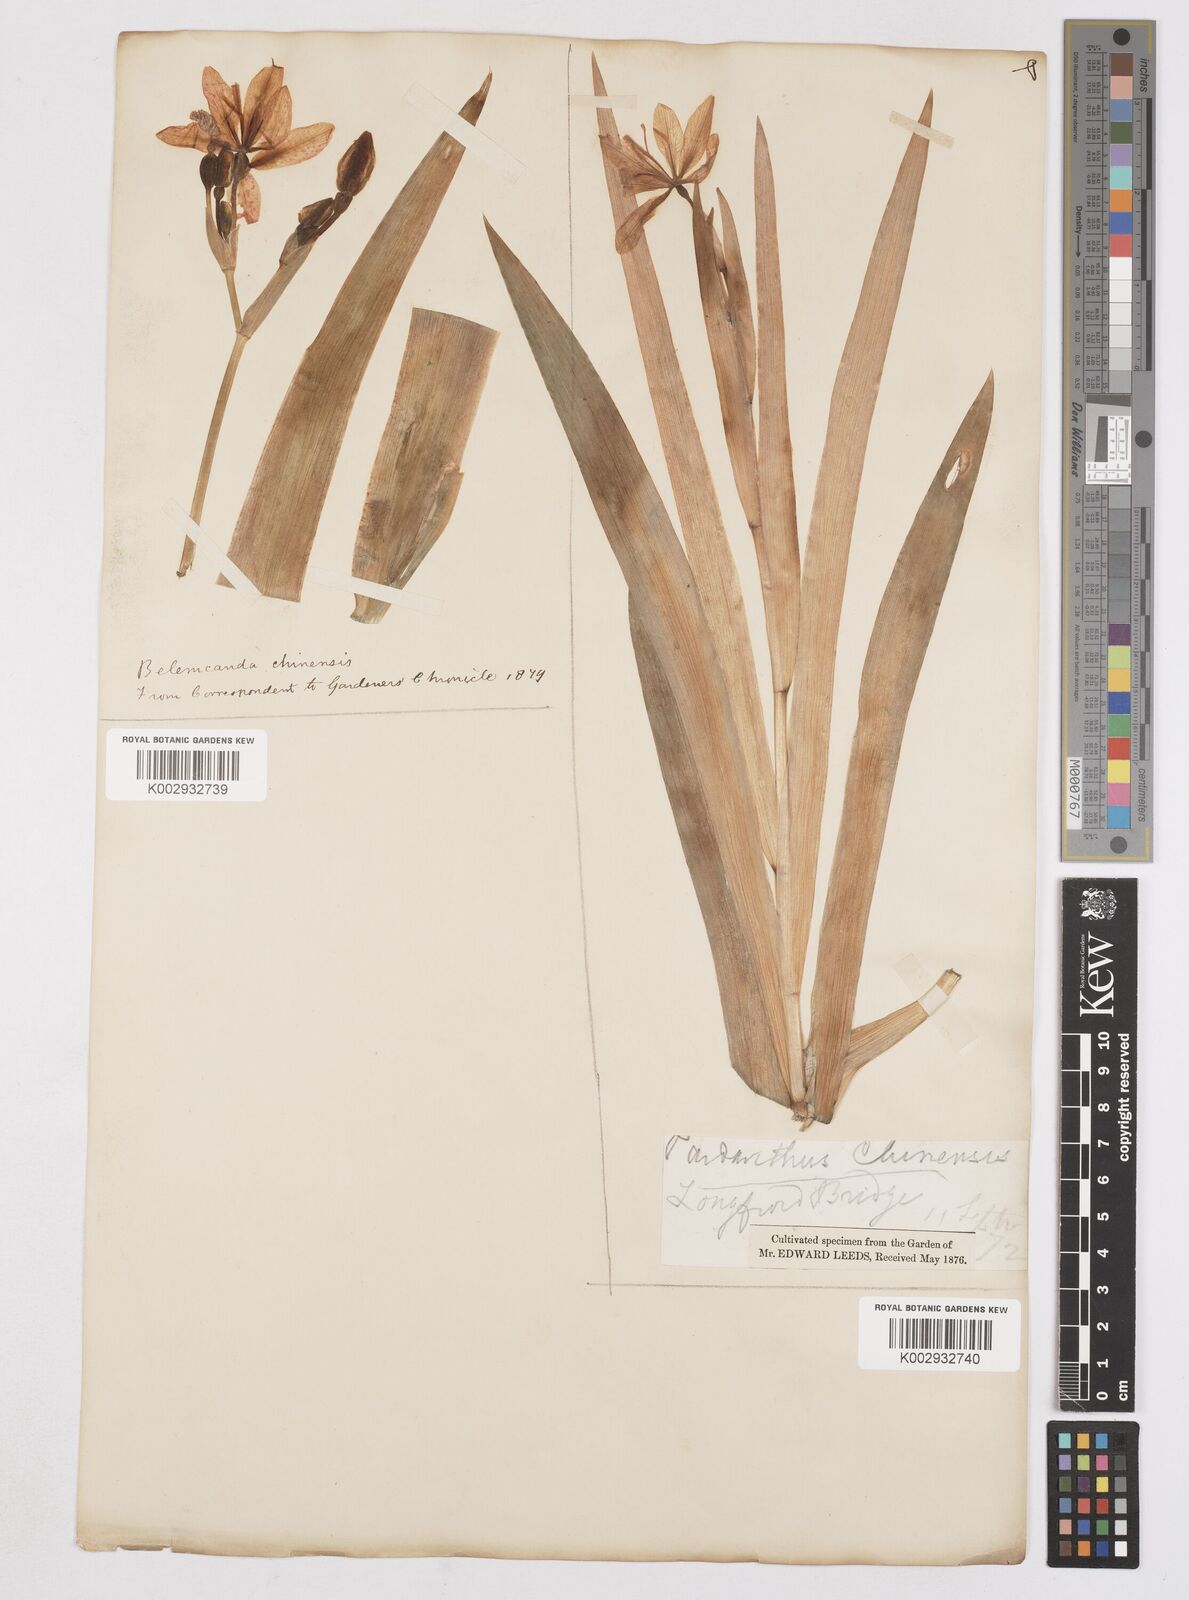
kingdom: Plantae
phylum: Tracheophyta
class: Liliopsida
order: Asparagales
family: Iridaceae
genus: Iris
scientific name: Iris
